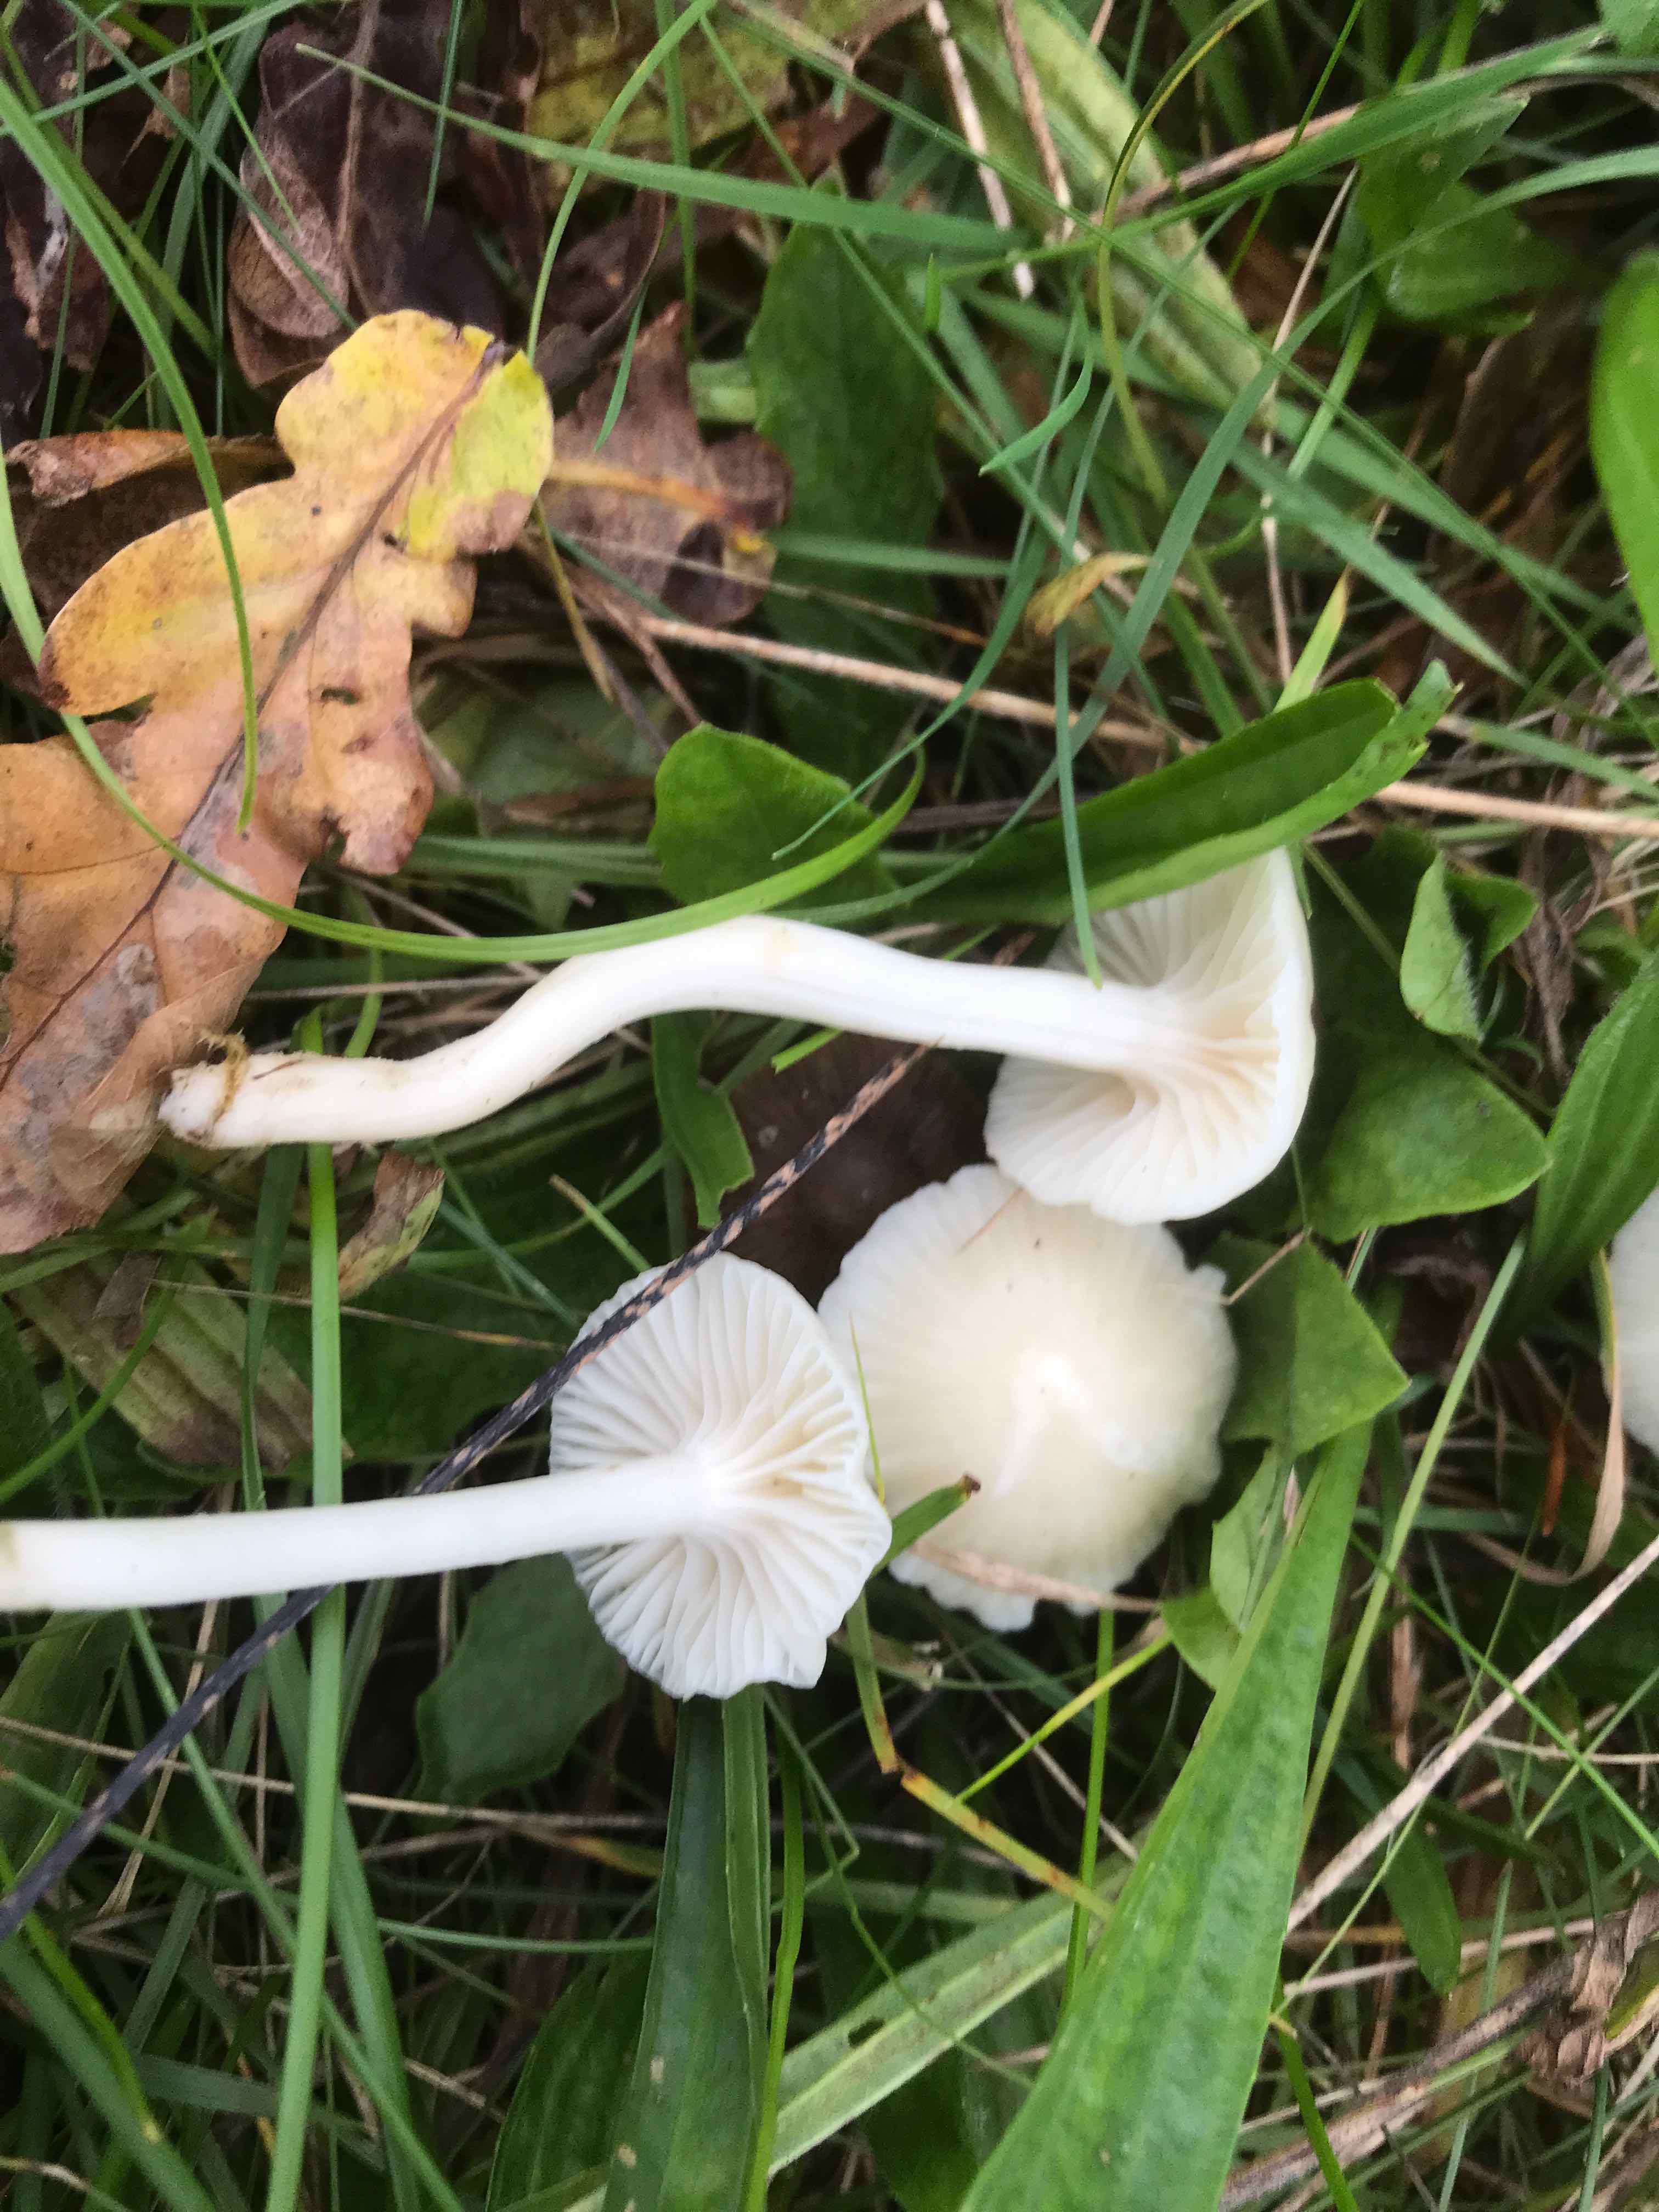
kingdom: Fungi
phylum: Basidiomycota
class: Agaricomycetes
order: Agaricales
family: Hygrophoraceae
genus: Cuphophyllus
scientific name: Cuphophyllus virgineus
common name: snehvid vokshat
